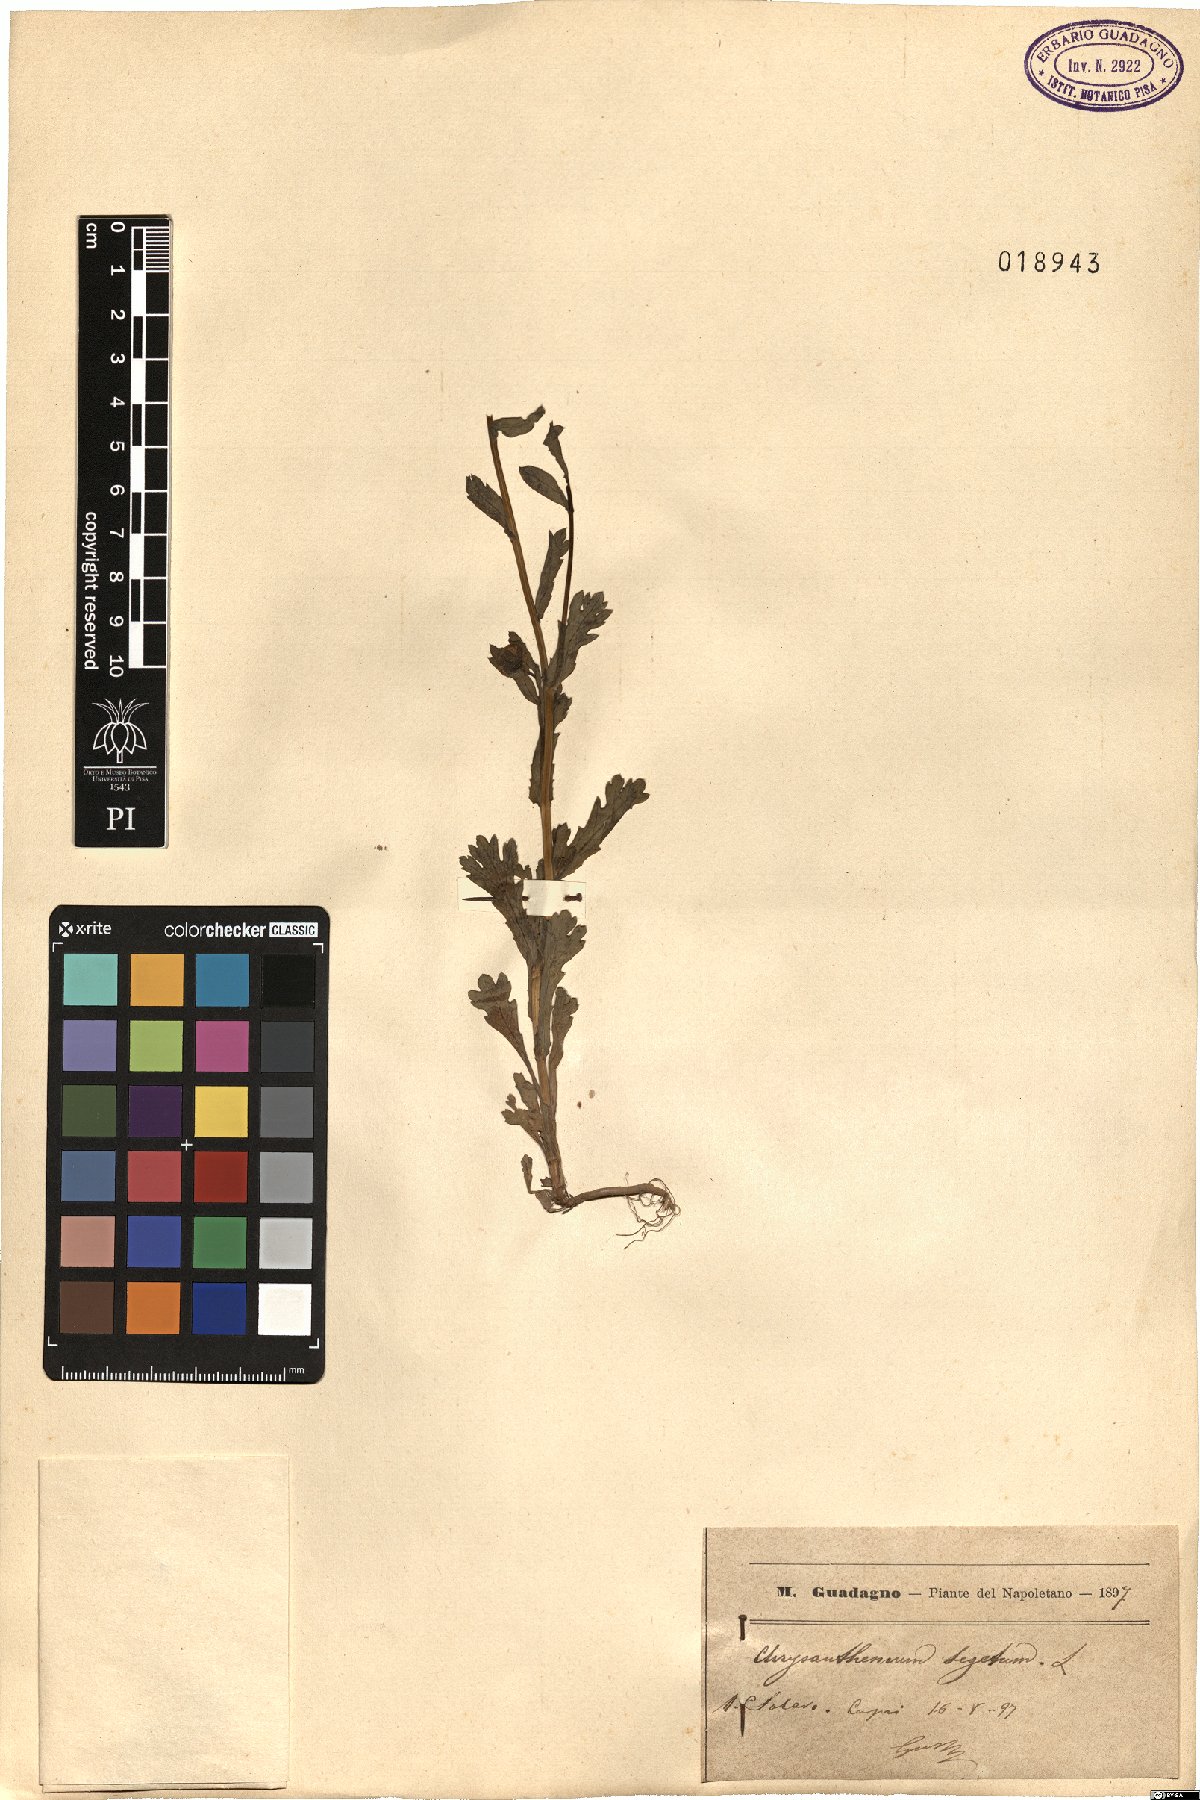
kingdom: Plantae
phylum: Tracheophyta
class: Magnoliopsida
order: Asterales
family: Asteraceae
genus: Glebionis
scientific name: Glebionis segetum
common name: Corndaisy
